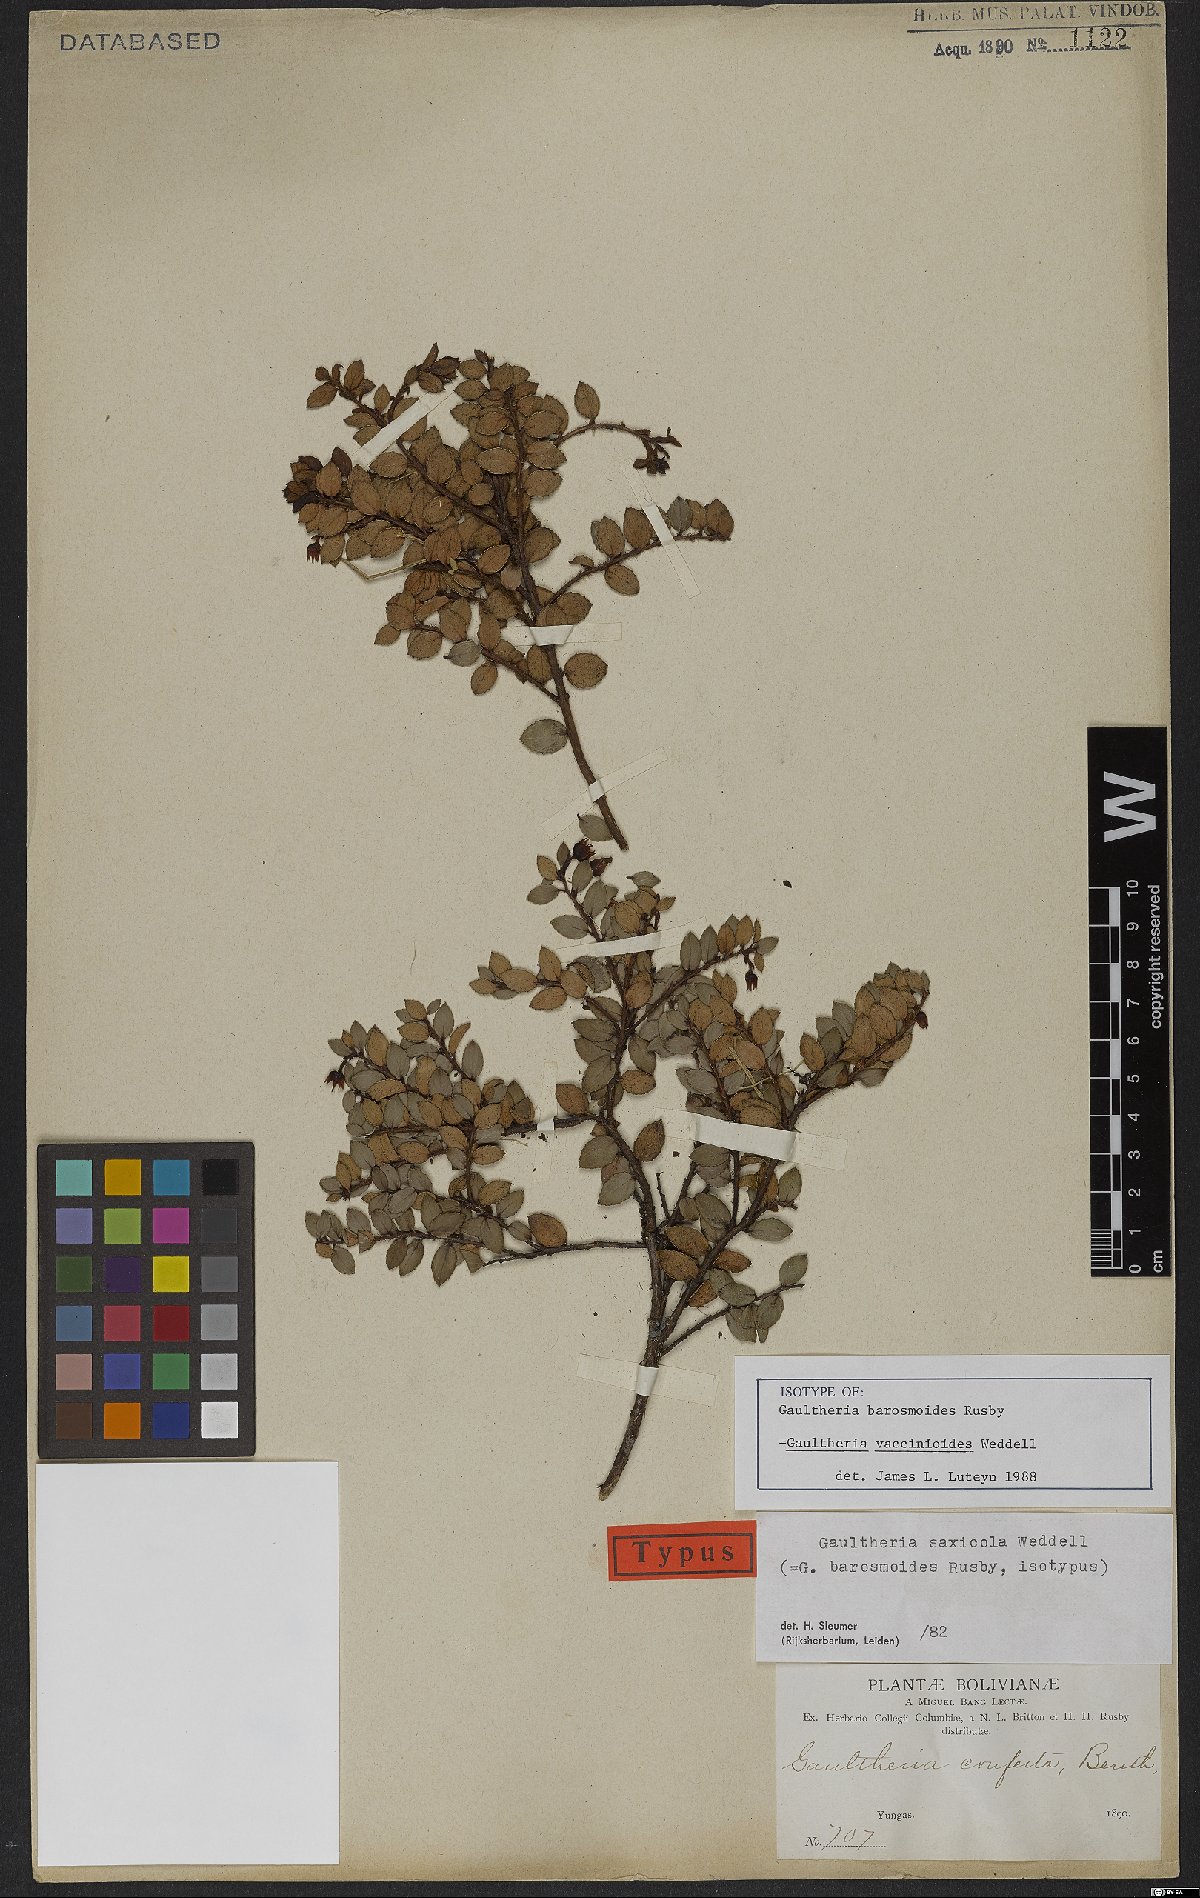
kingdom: Plantae
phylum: Tracheophyta
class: Magnoliopsida
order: Ericales
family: Ericaceae
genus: Gaultheria
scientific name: Gaultheria vaccinioides
